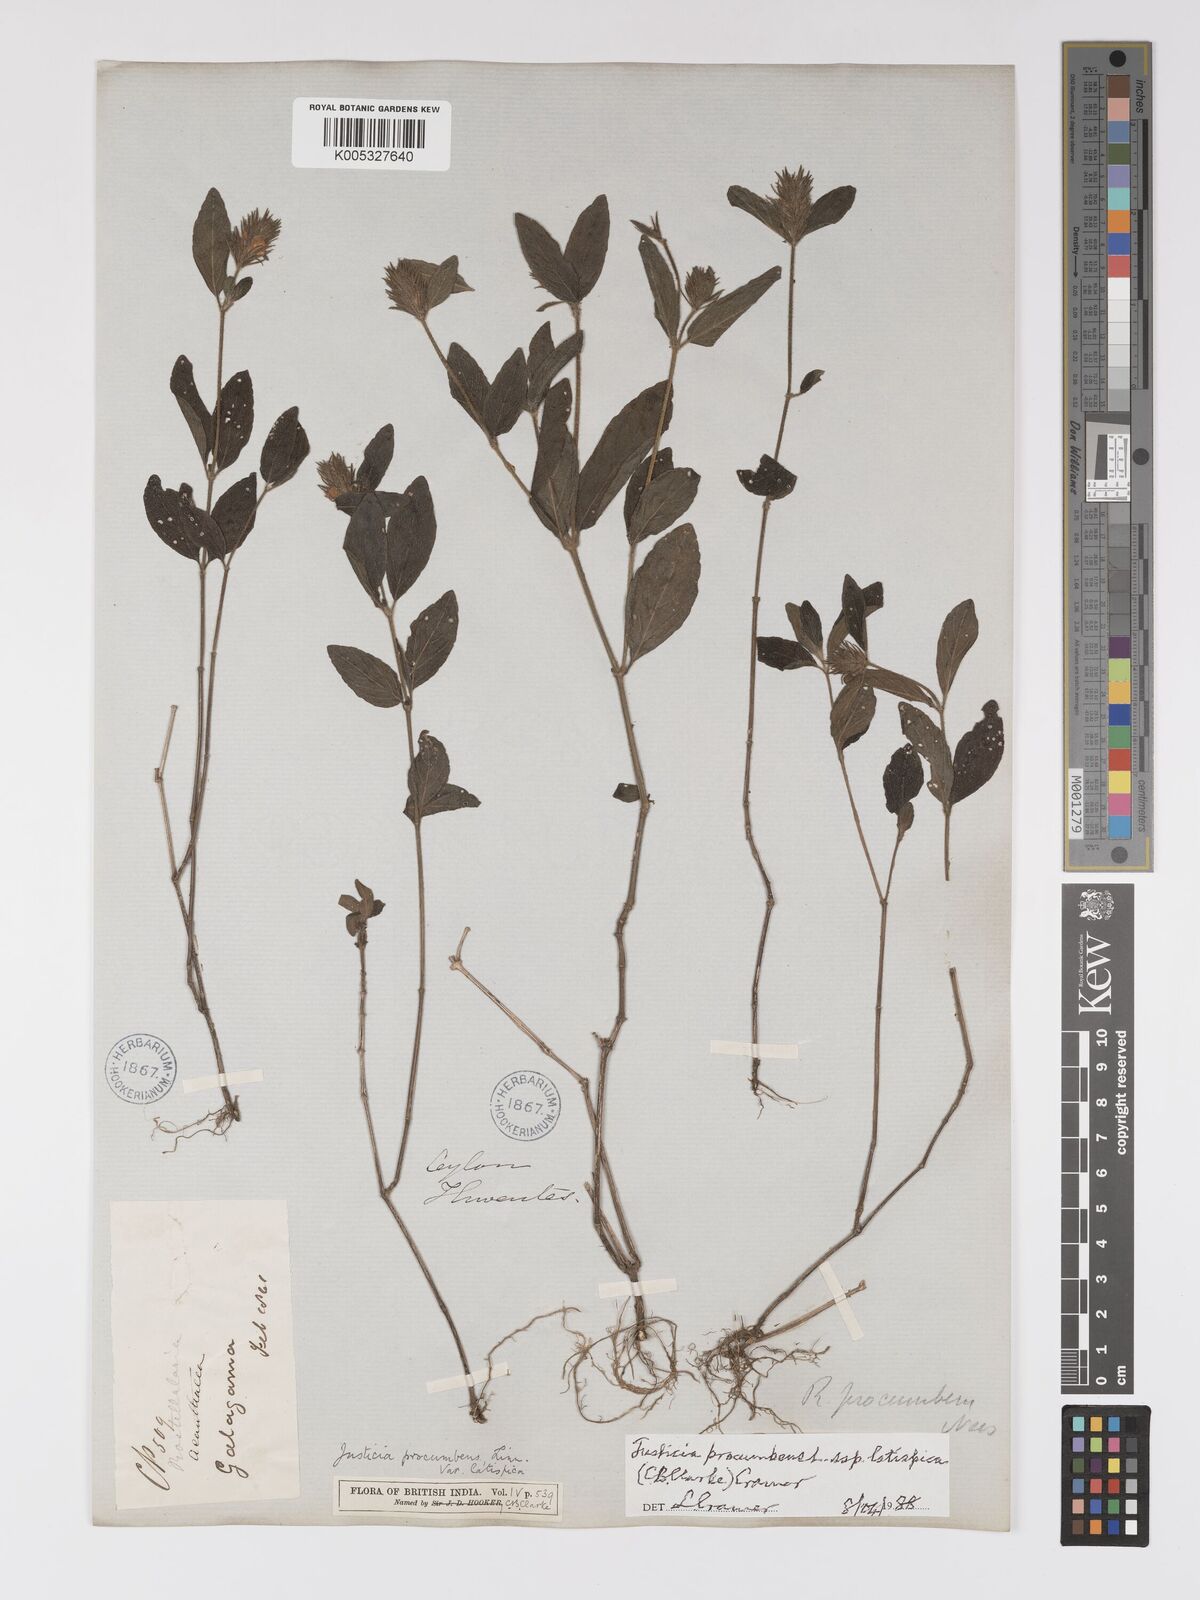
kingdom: Plantae
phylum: Tracheophyta
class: Magnoliopsida
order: Lamiales
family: Acanthaceae
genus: Rostellularia
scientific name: Rostellularia latispica
